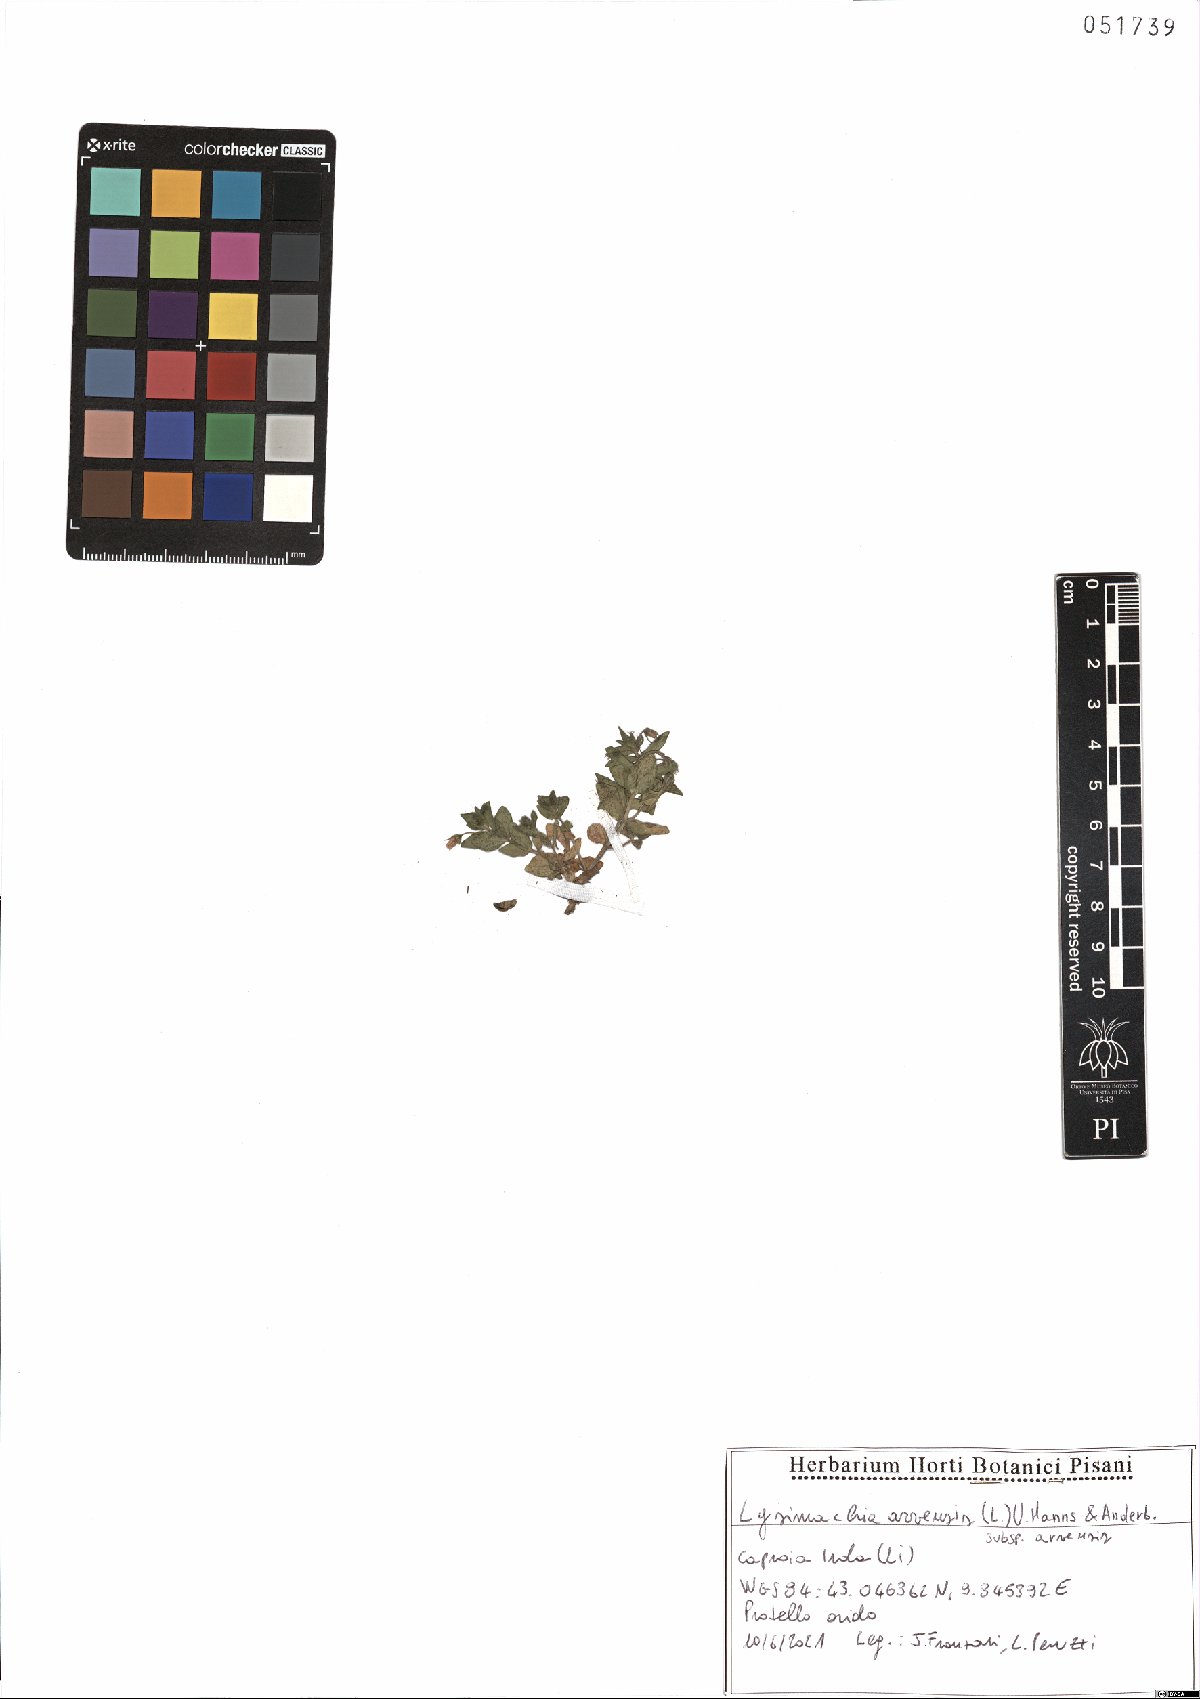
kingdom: Plantae
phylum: Tracheophyta
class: Magnoliopsida
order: Ericales
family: Primulaceae
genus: Lysimachia
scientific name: Lysimachia arvensis
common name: Scarlet pimpernel
